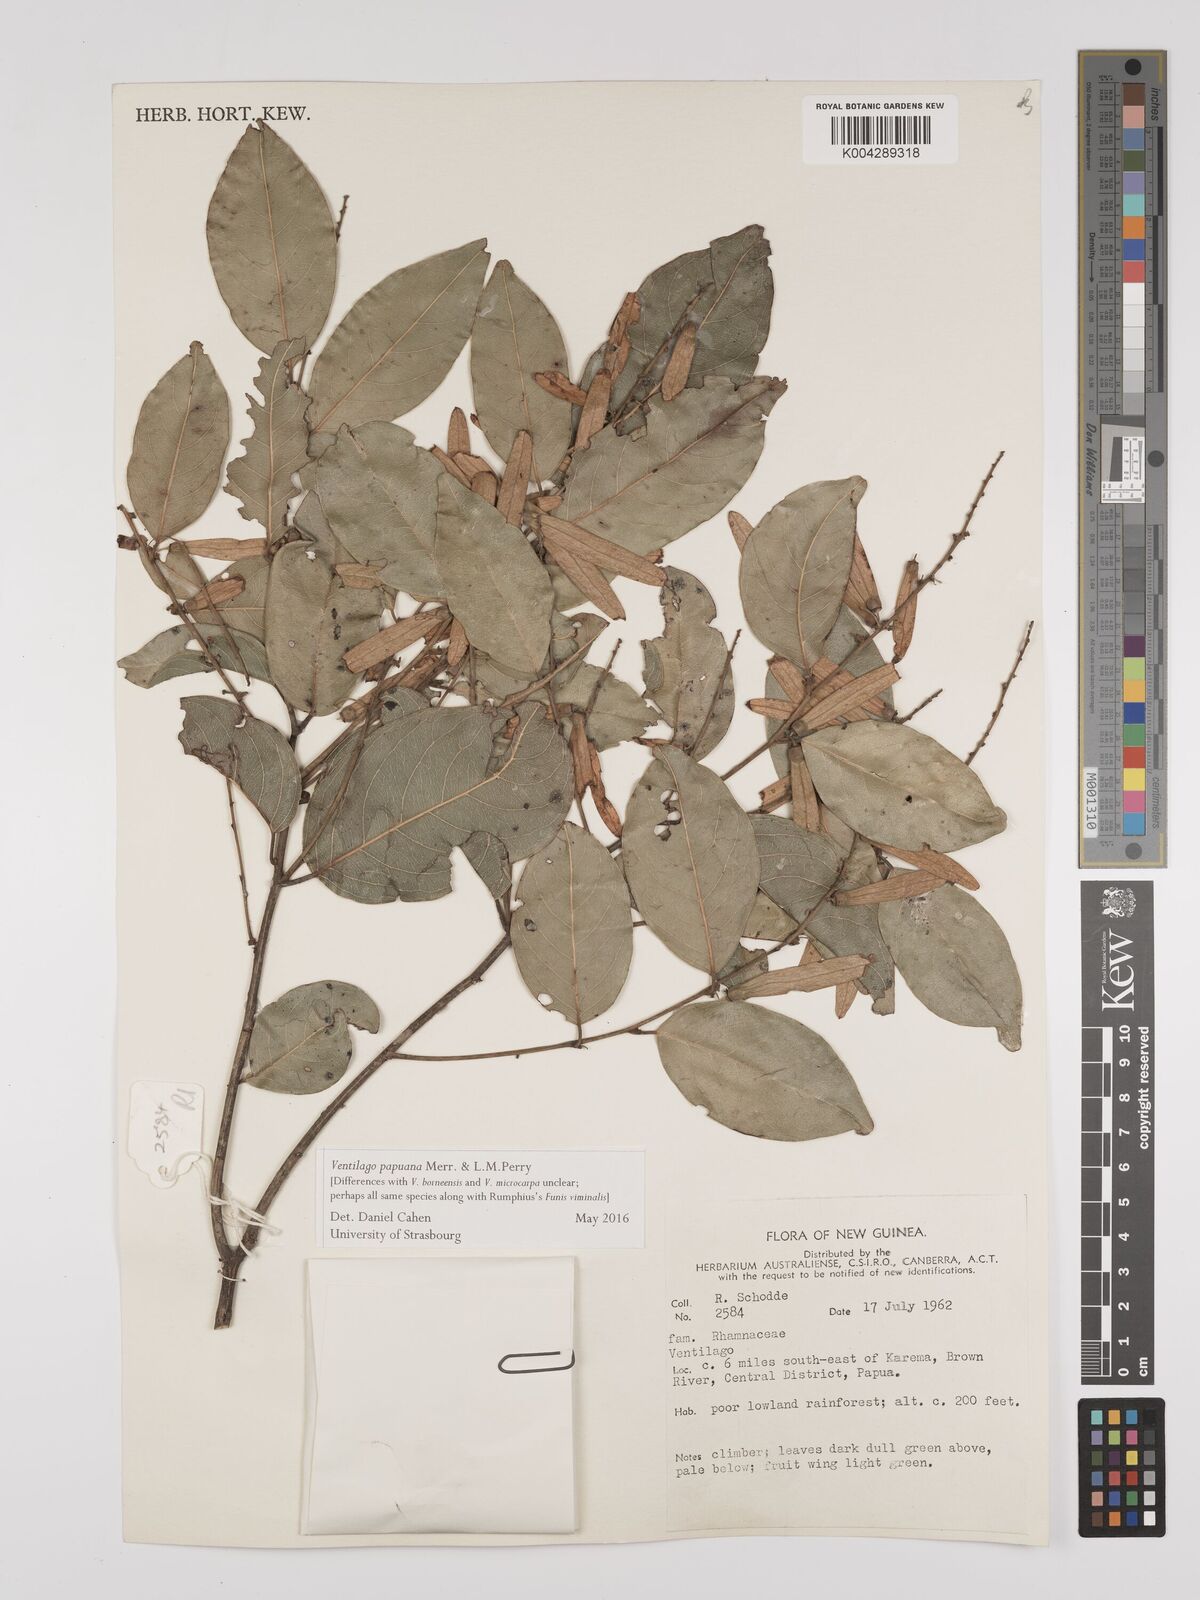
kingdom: Plantae
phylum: Tracheophyta
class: Magnoliopsida
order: Rosales
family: Rhamnaceae
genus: Ventilago
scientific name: Ventilago papuana
